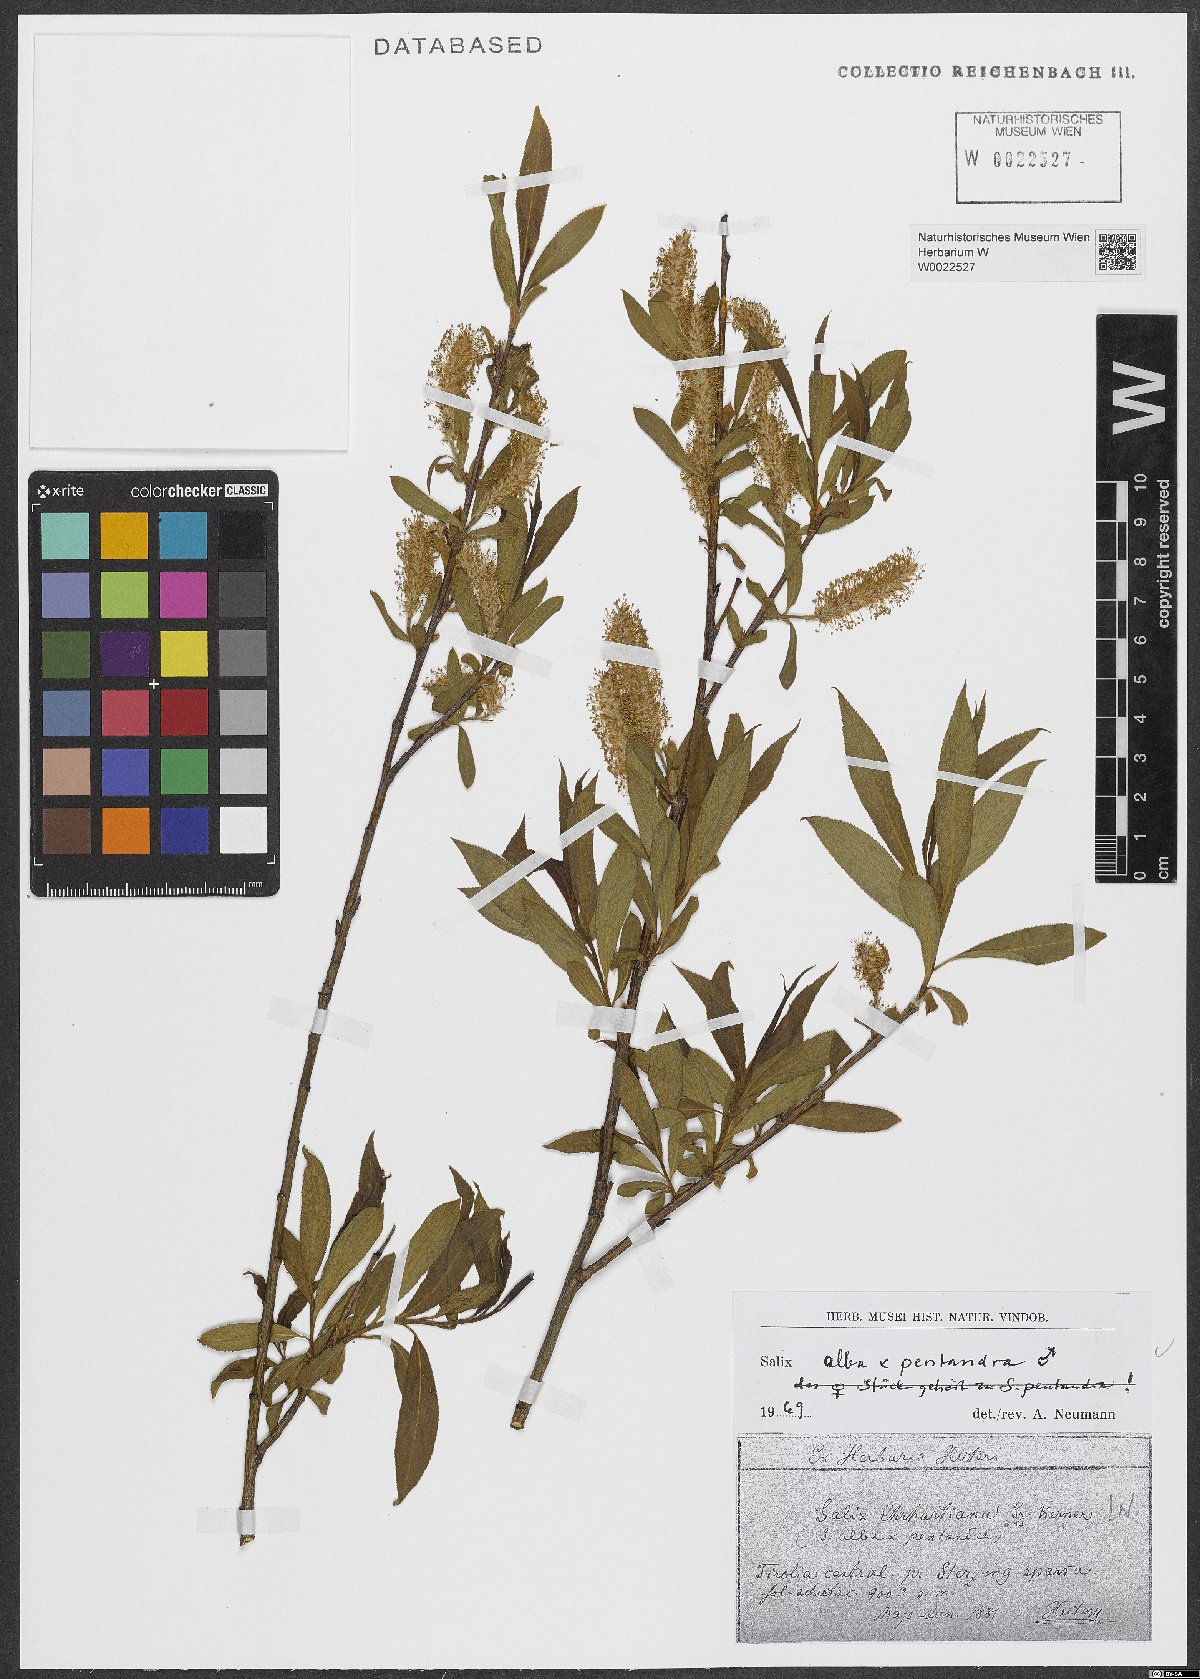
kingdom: Plantae
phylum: Tracheophyta
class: Magnoliopsida
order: Malpighiales
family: Salicaceae
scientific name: Salicaceae
